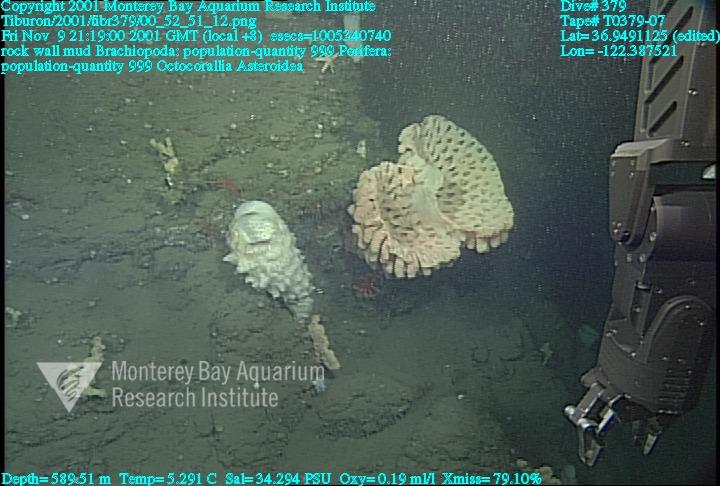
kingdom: Animalia
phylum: Porifera
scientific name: Porifera
